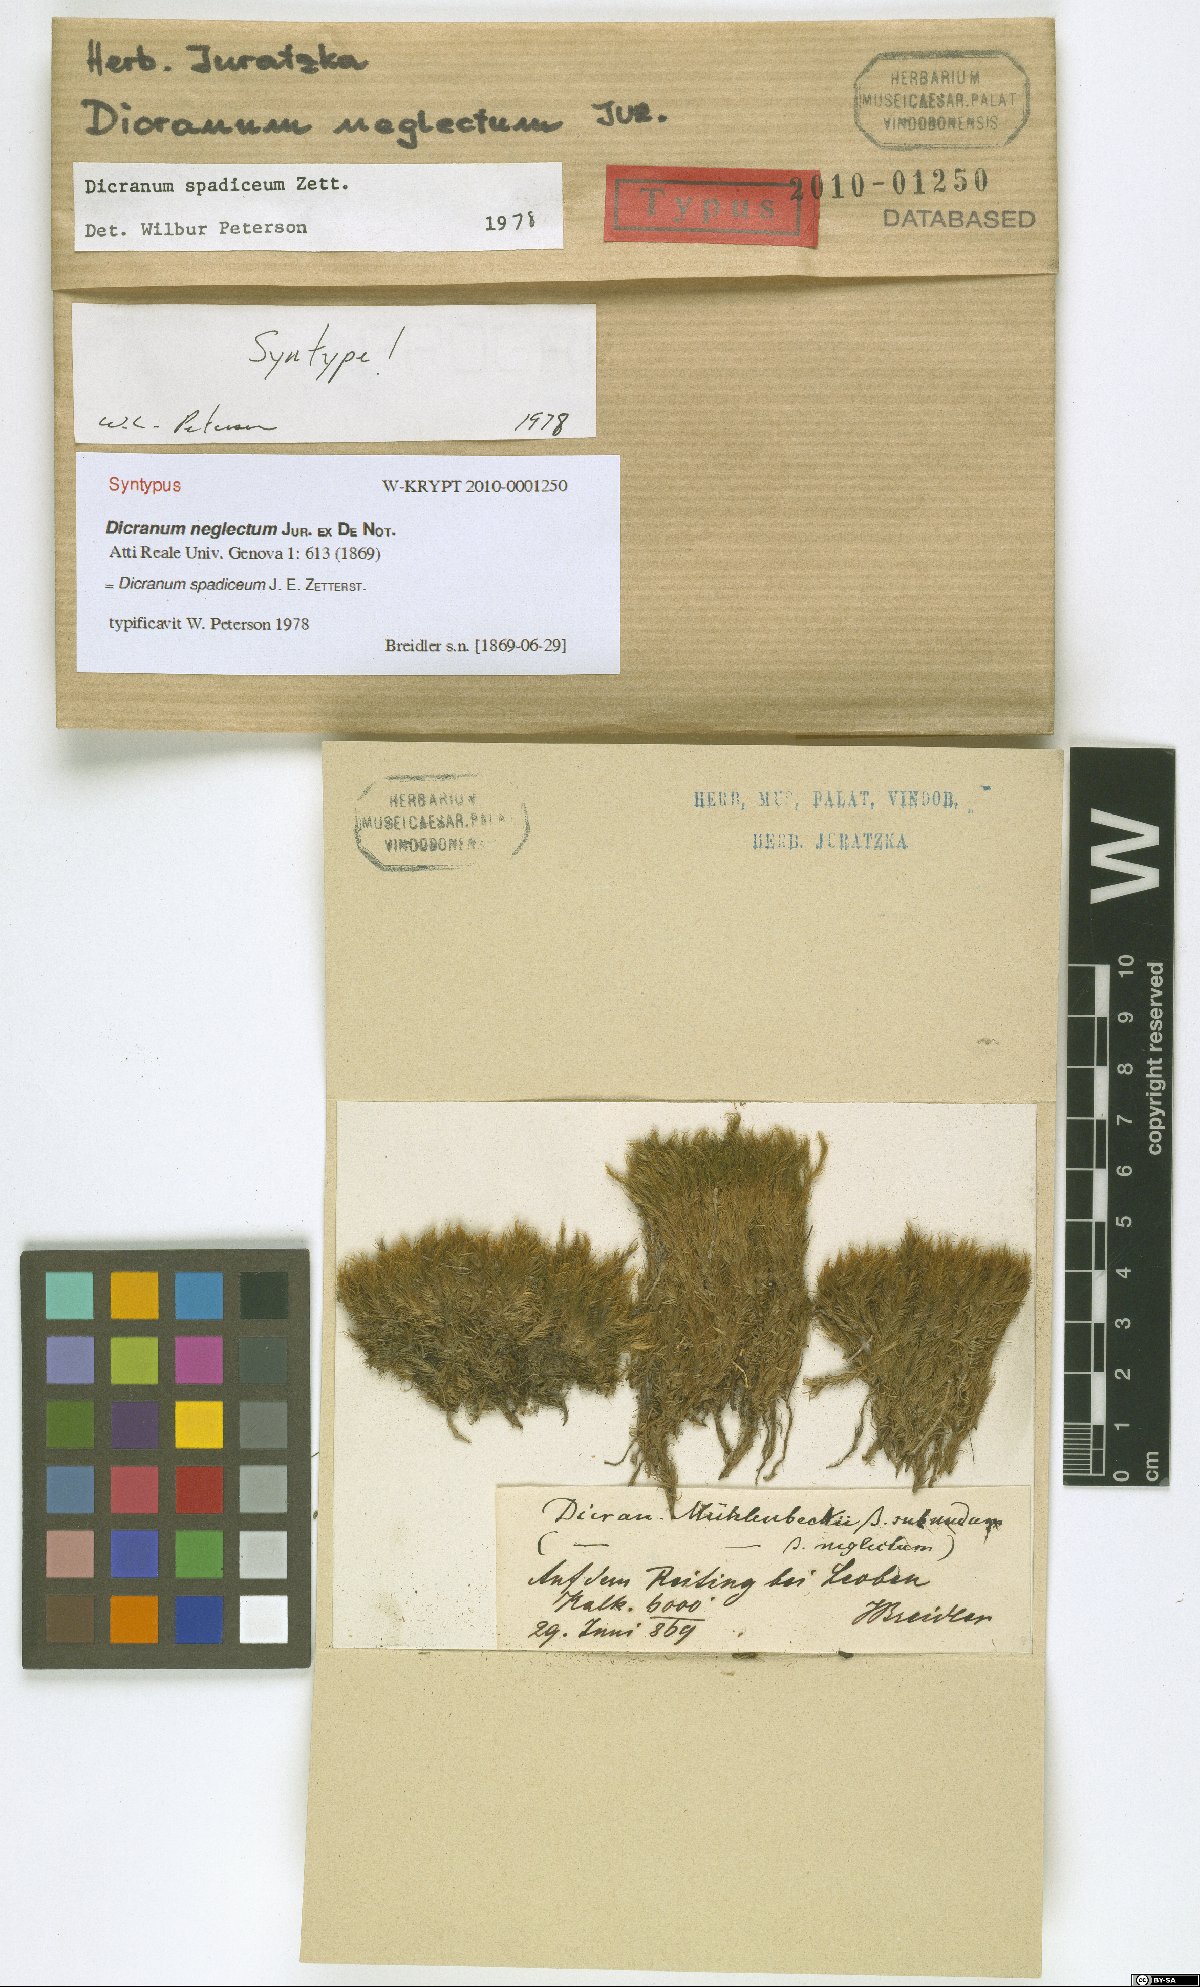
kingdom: Plantae
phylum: Bryophyta
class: Bryopsida
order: Dicranales
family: Dicranaceae
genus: Dicranum
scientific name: Dicranum spadiceum
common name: Confusing broom moss
